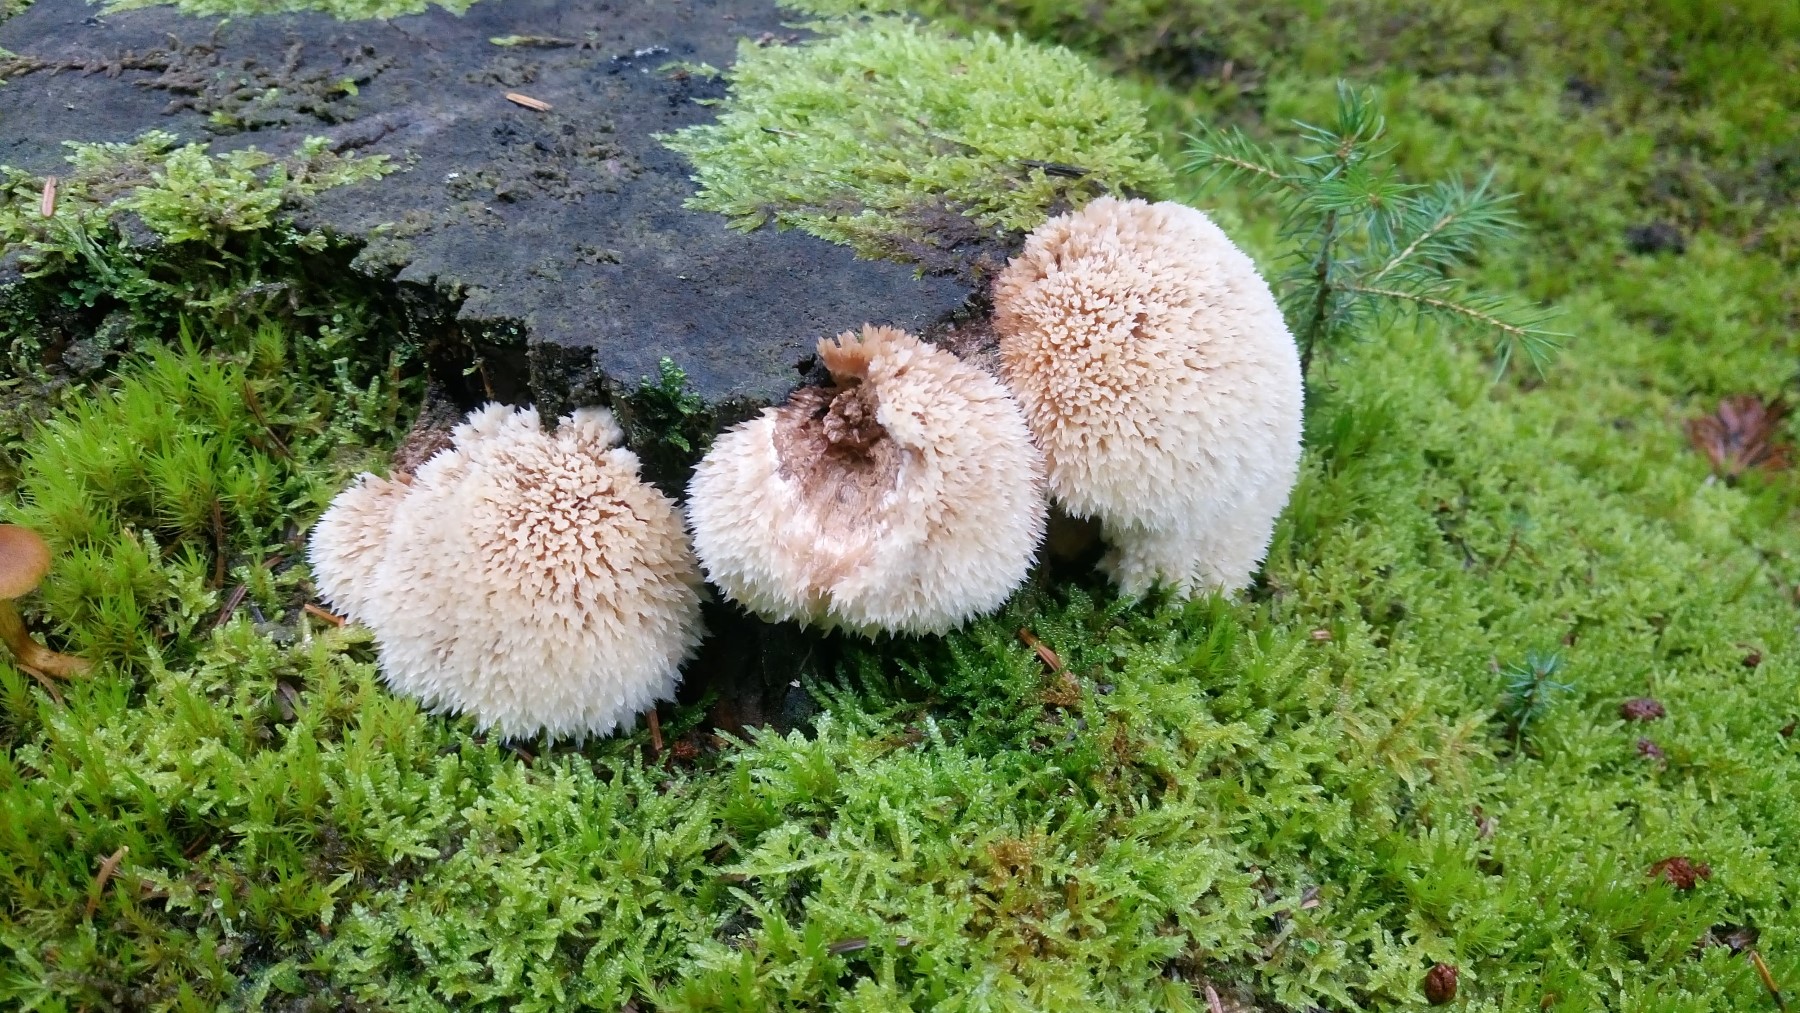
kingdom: Fungi
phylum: Basidiomycota
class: Agaricomycetes
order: Polyporales
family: Dacryobolaceae
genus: Postia
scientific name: Postia ptychogaster
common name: støvende kødporesvamp
